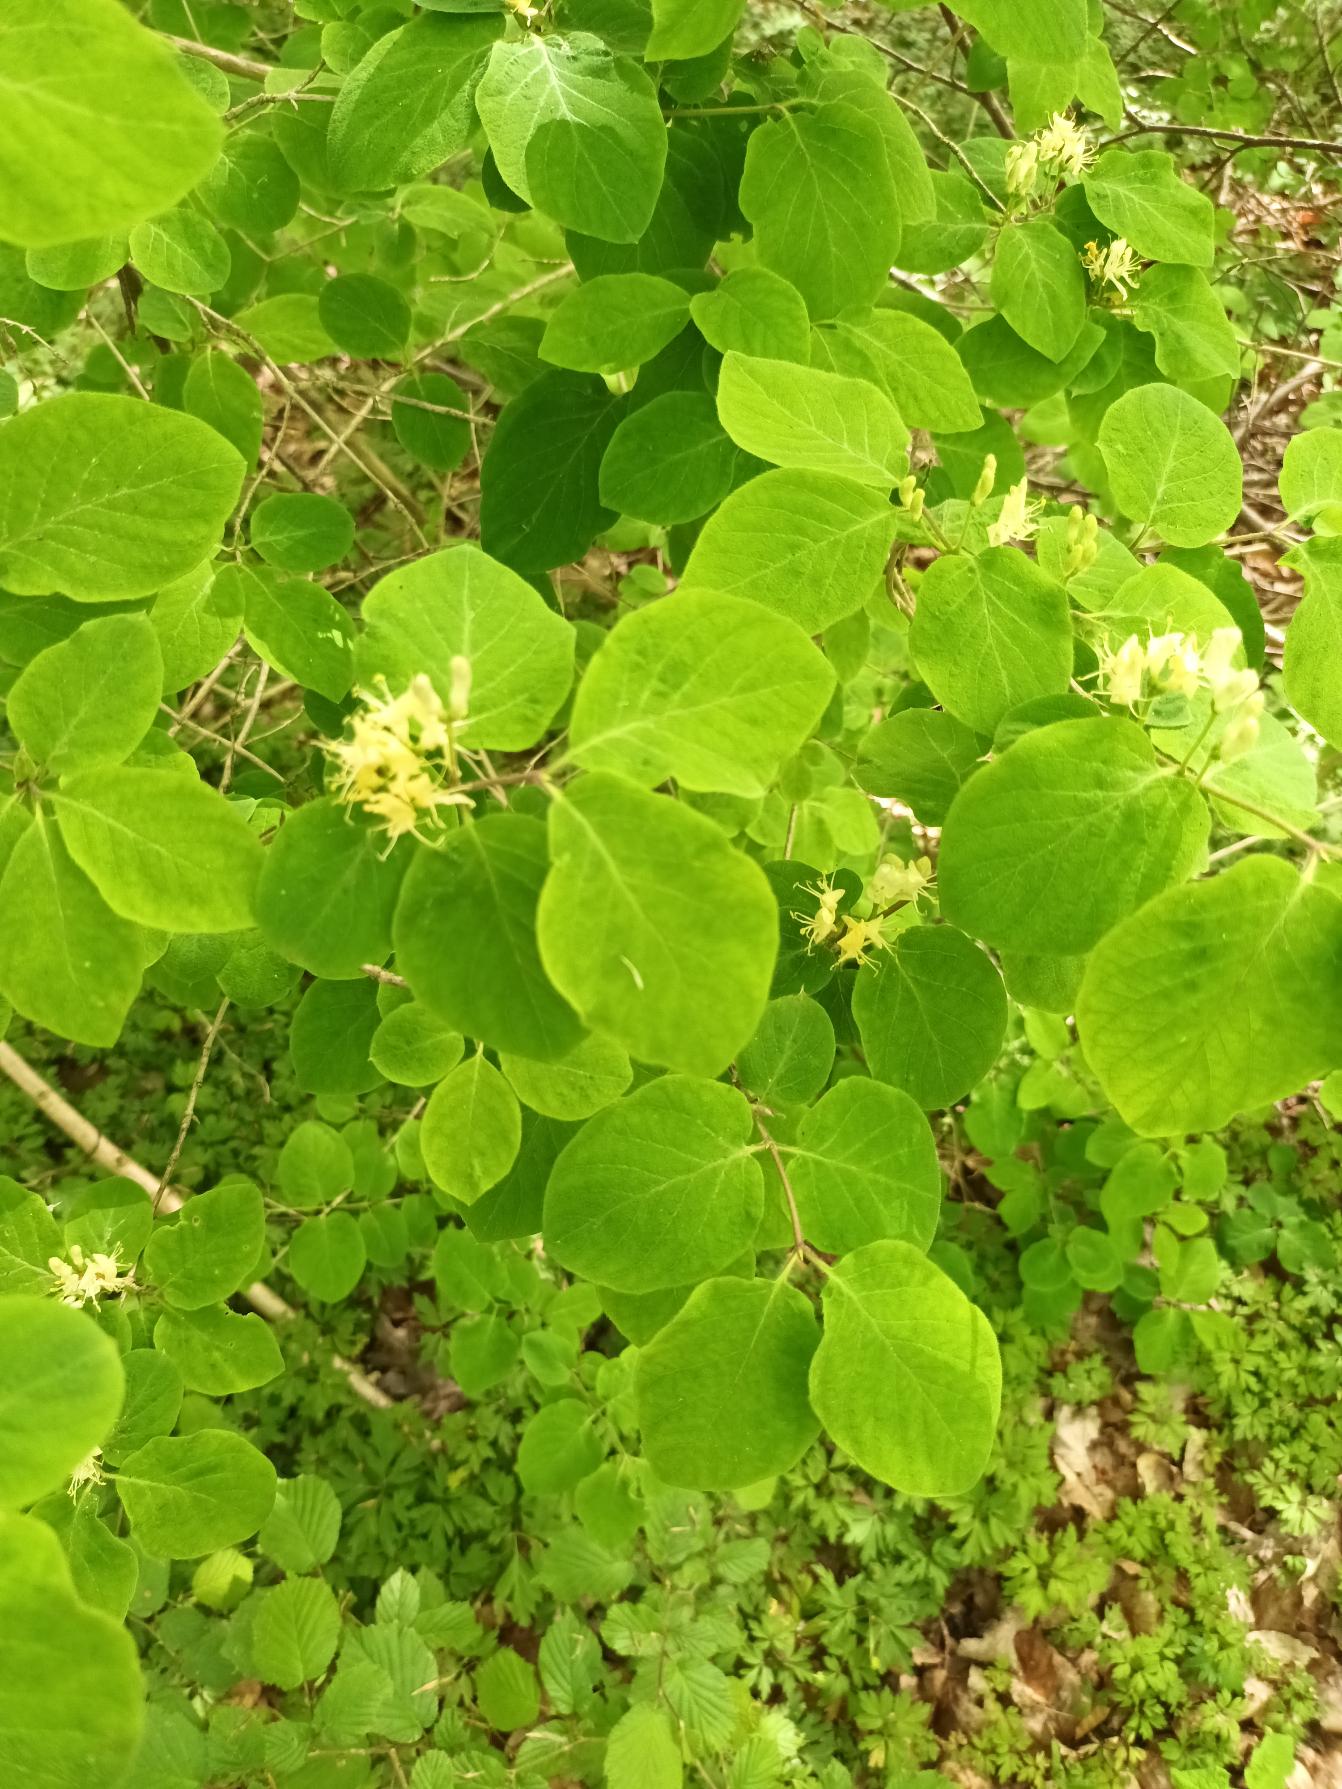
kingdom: Plantae
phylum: Tracheophyta
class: Magnoliopsida
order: Dipsacales
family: Caprifoliaceae
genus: Lonicera
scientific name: Lonicera xylosteum
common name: Dunet gedeblad
